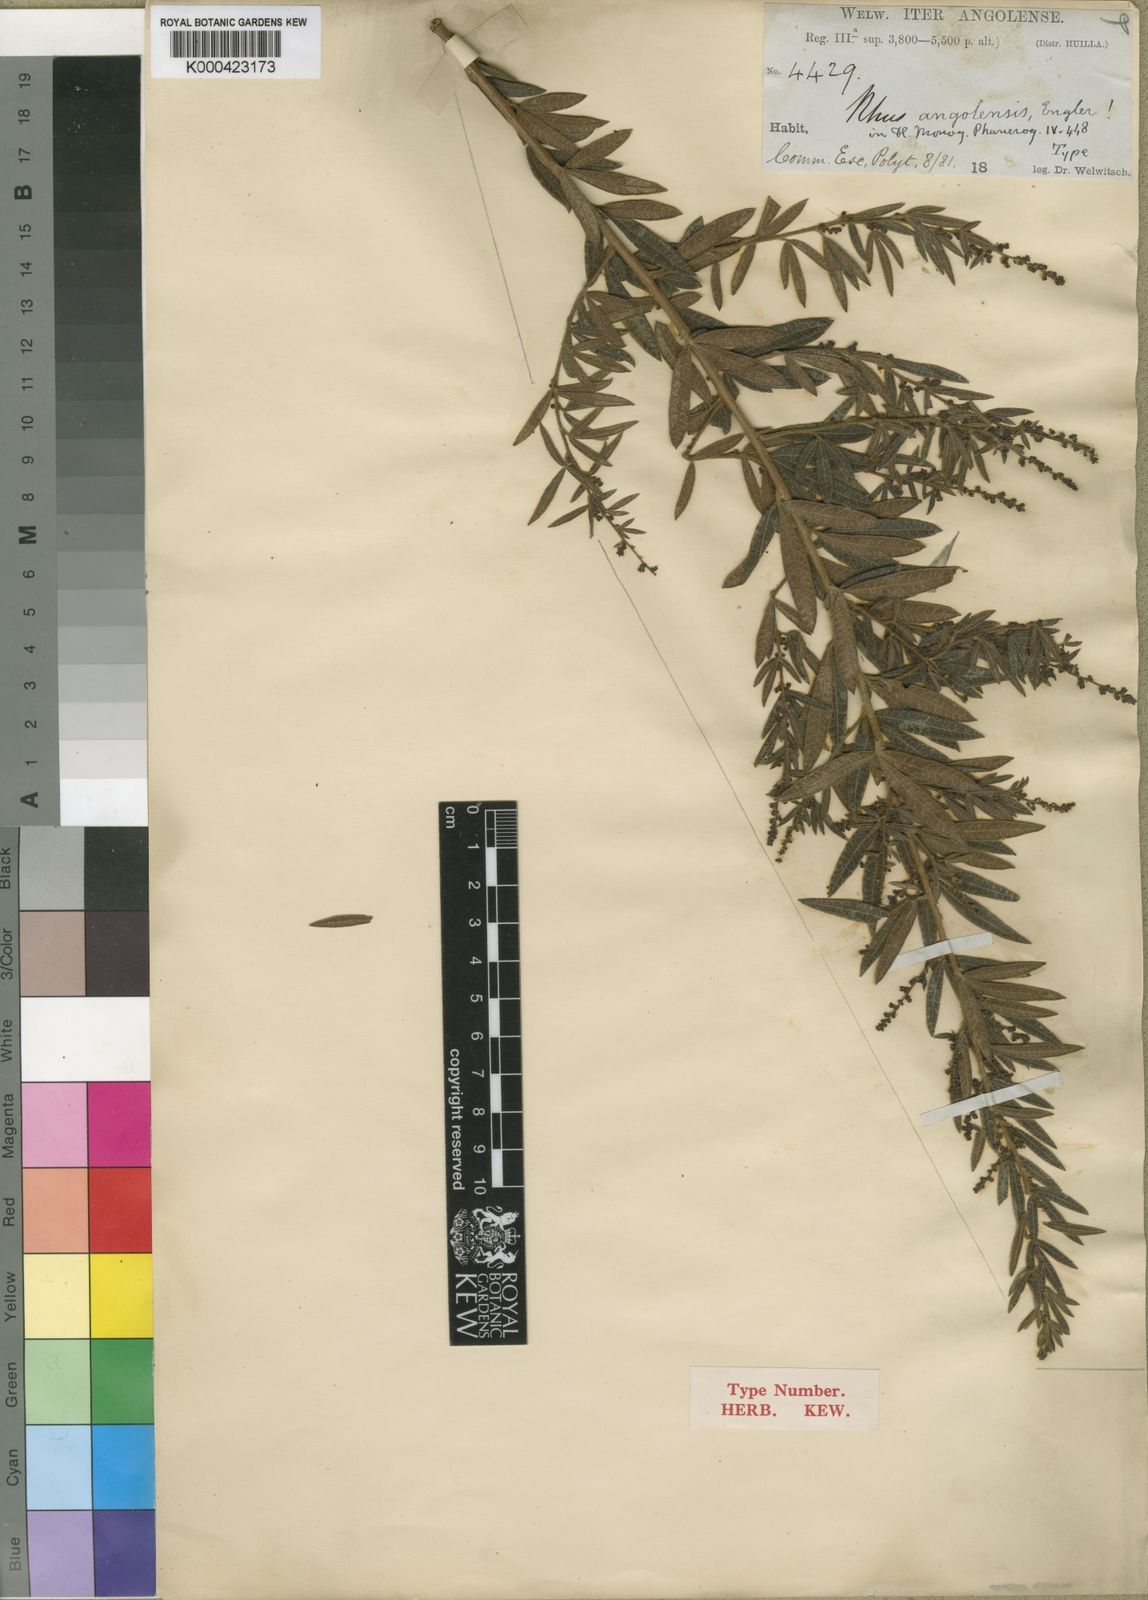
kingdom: Plantae
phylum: Tracheophyta
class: Magnoliopsida
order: Sapindales
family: Anacardiaceae
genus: Searsia
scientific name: Searsia angolensis
